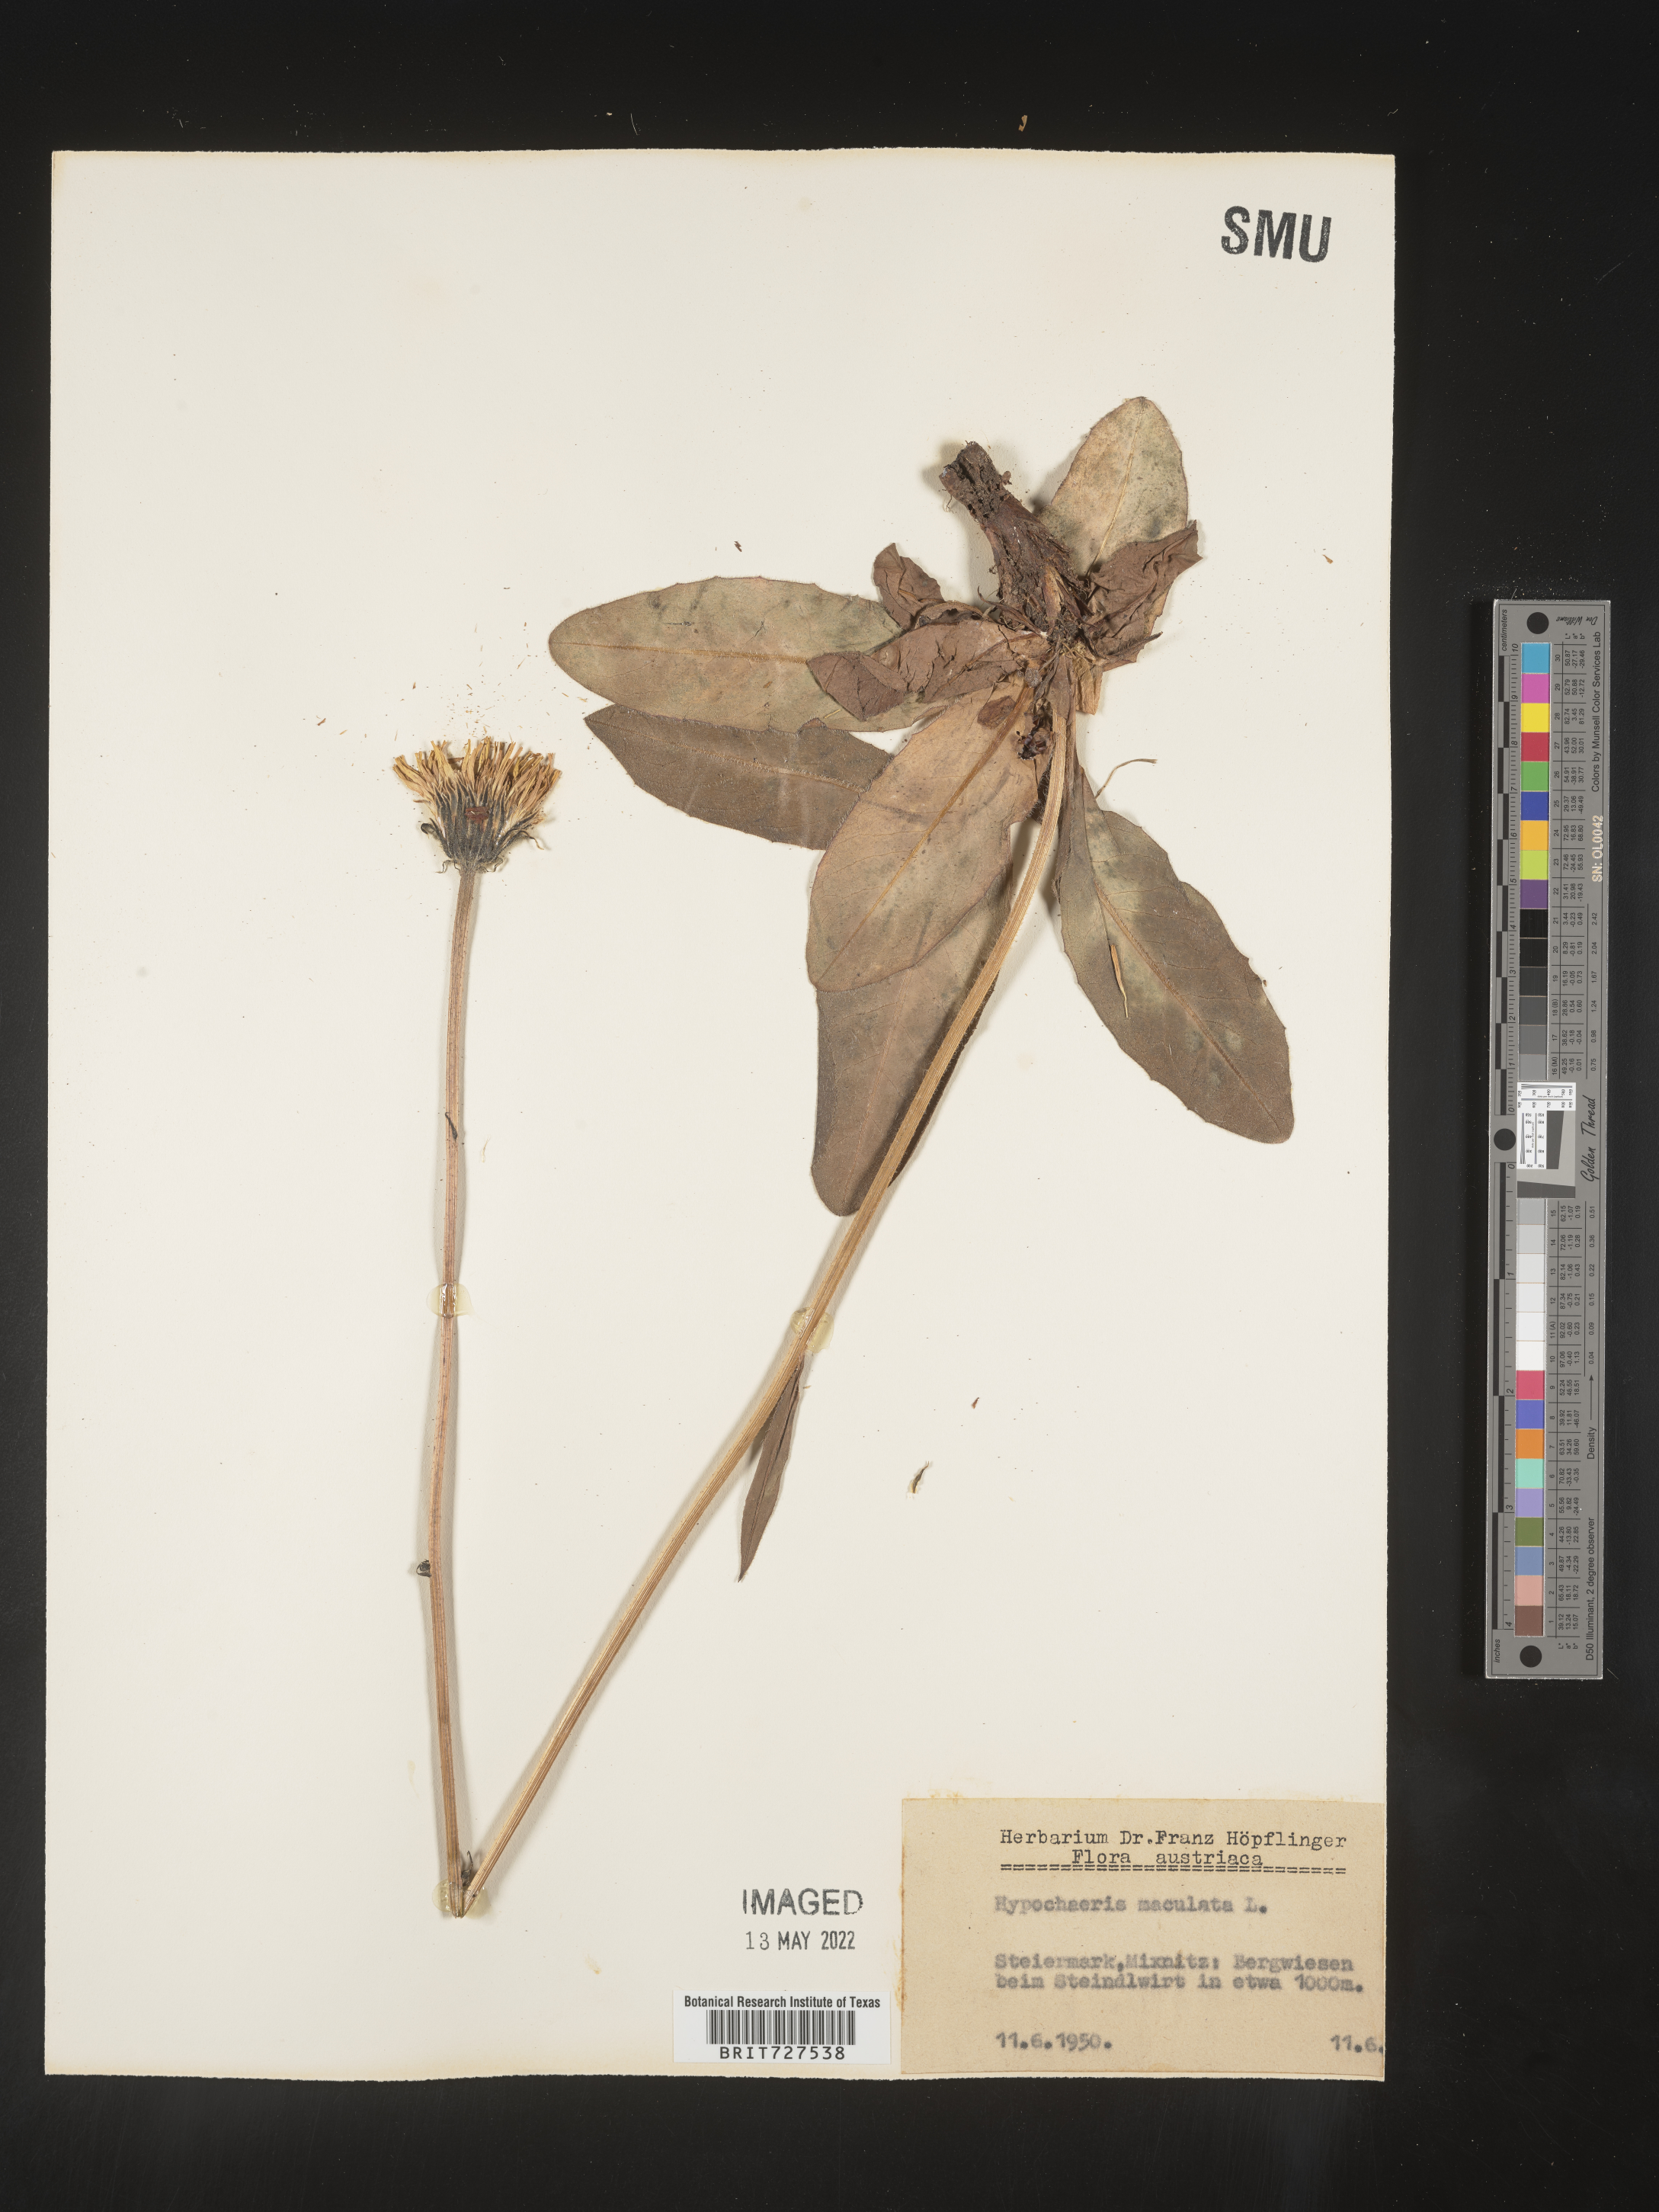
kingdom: Plantae
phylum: Tracheophyta
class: Magnoliopsida
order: Asterales
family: Asteraceae
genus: Hypochaeris
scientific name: Hypochaeris
